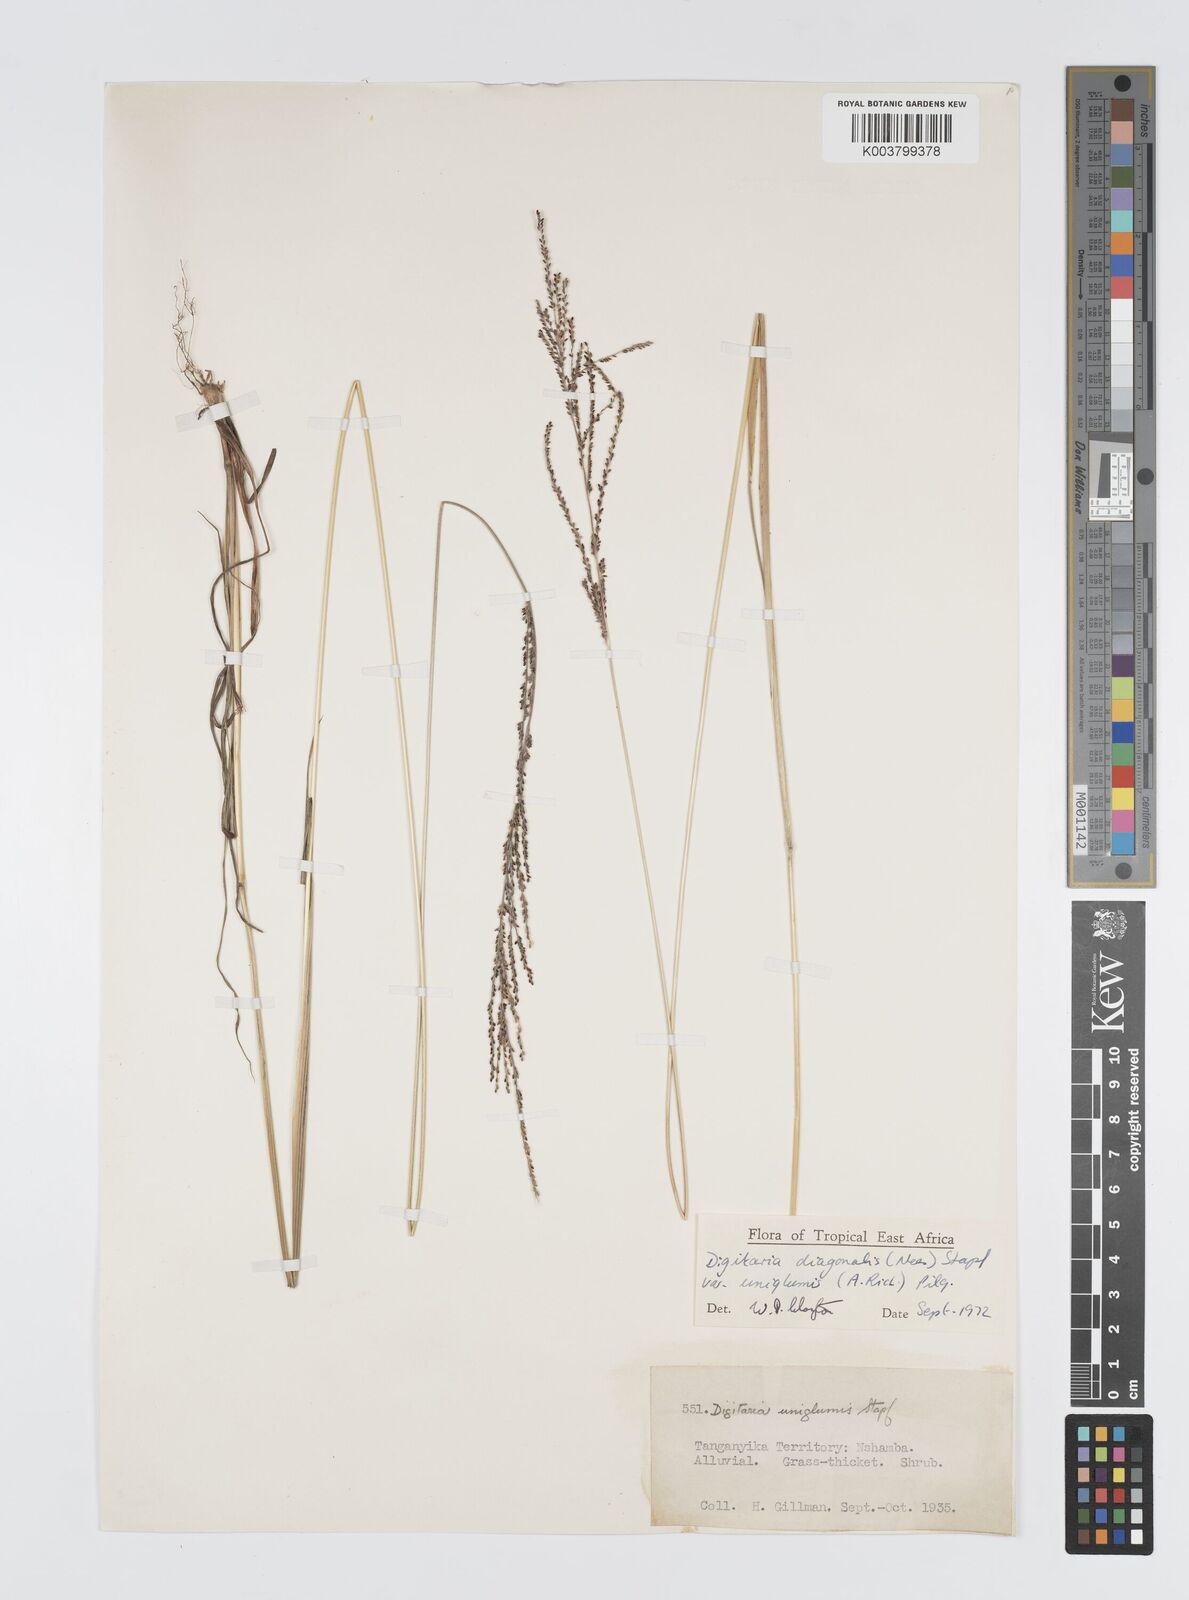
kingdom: Plantae
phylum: Tracheophyta
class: Liliopsida
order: Poales
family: Poaceae
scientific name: Poaceae
